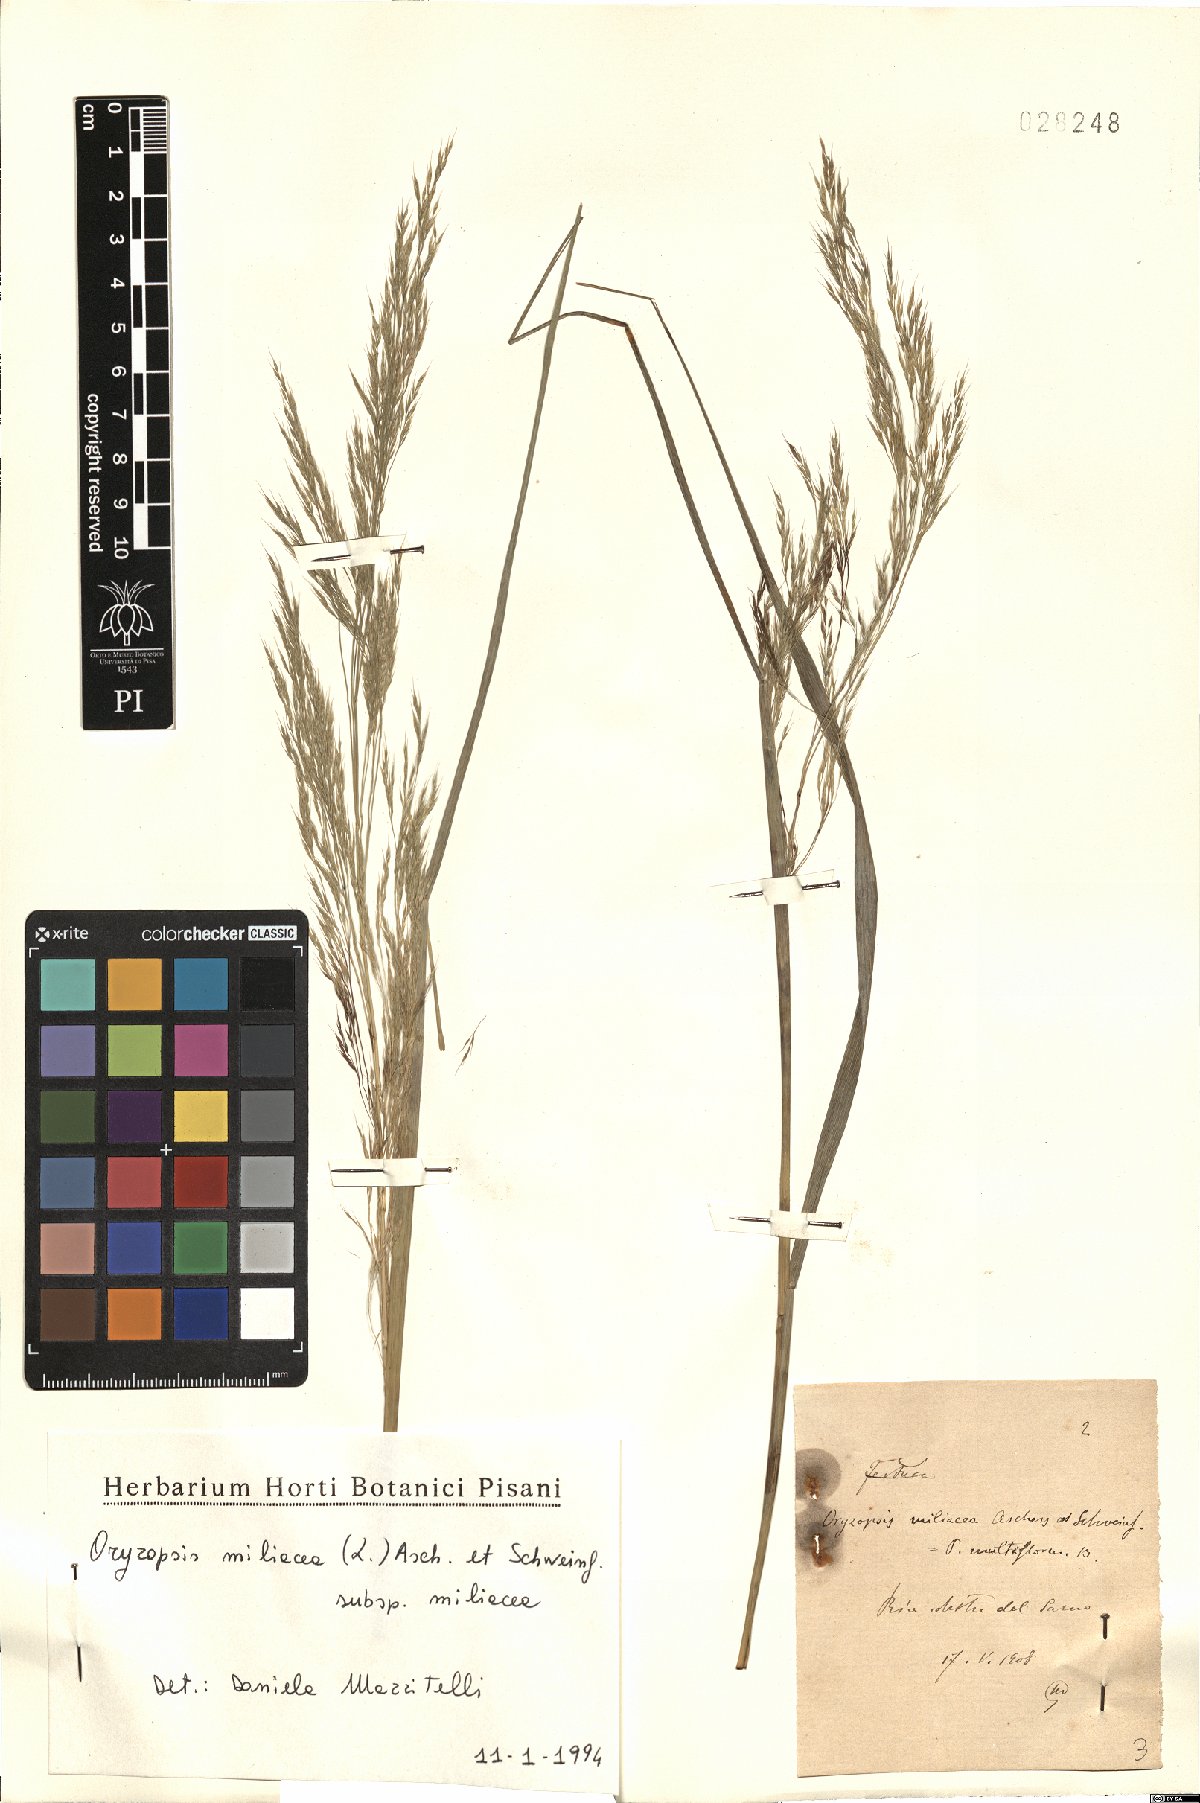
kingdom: Plantae
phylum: Tracheophyta
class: Liliopsida
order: Poales
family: Poaceae
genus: Oryzopsis
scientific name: Oryzopsis miliacea
